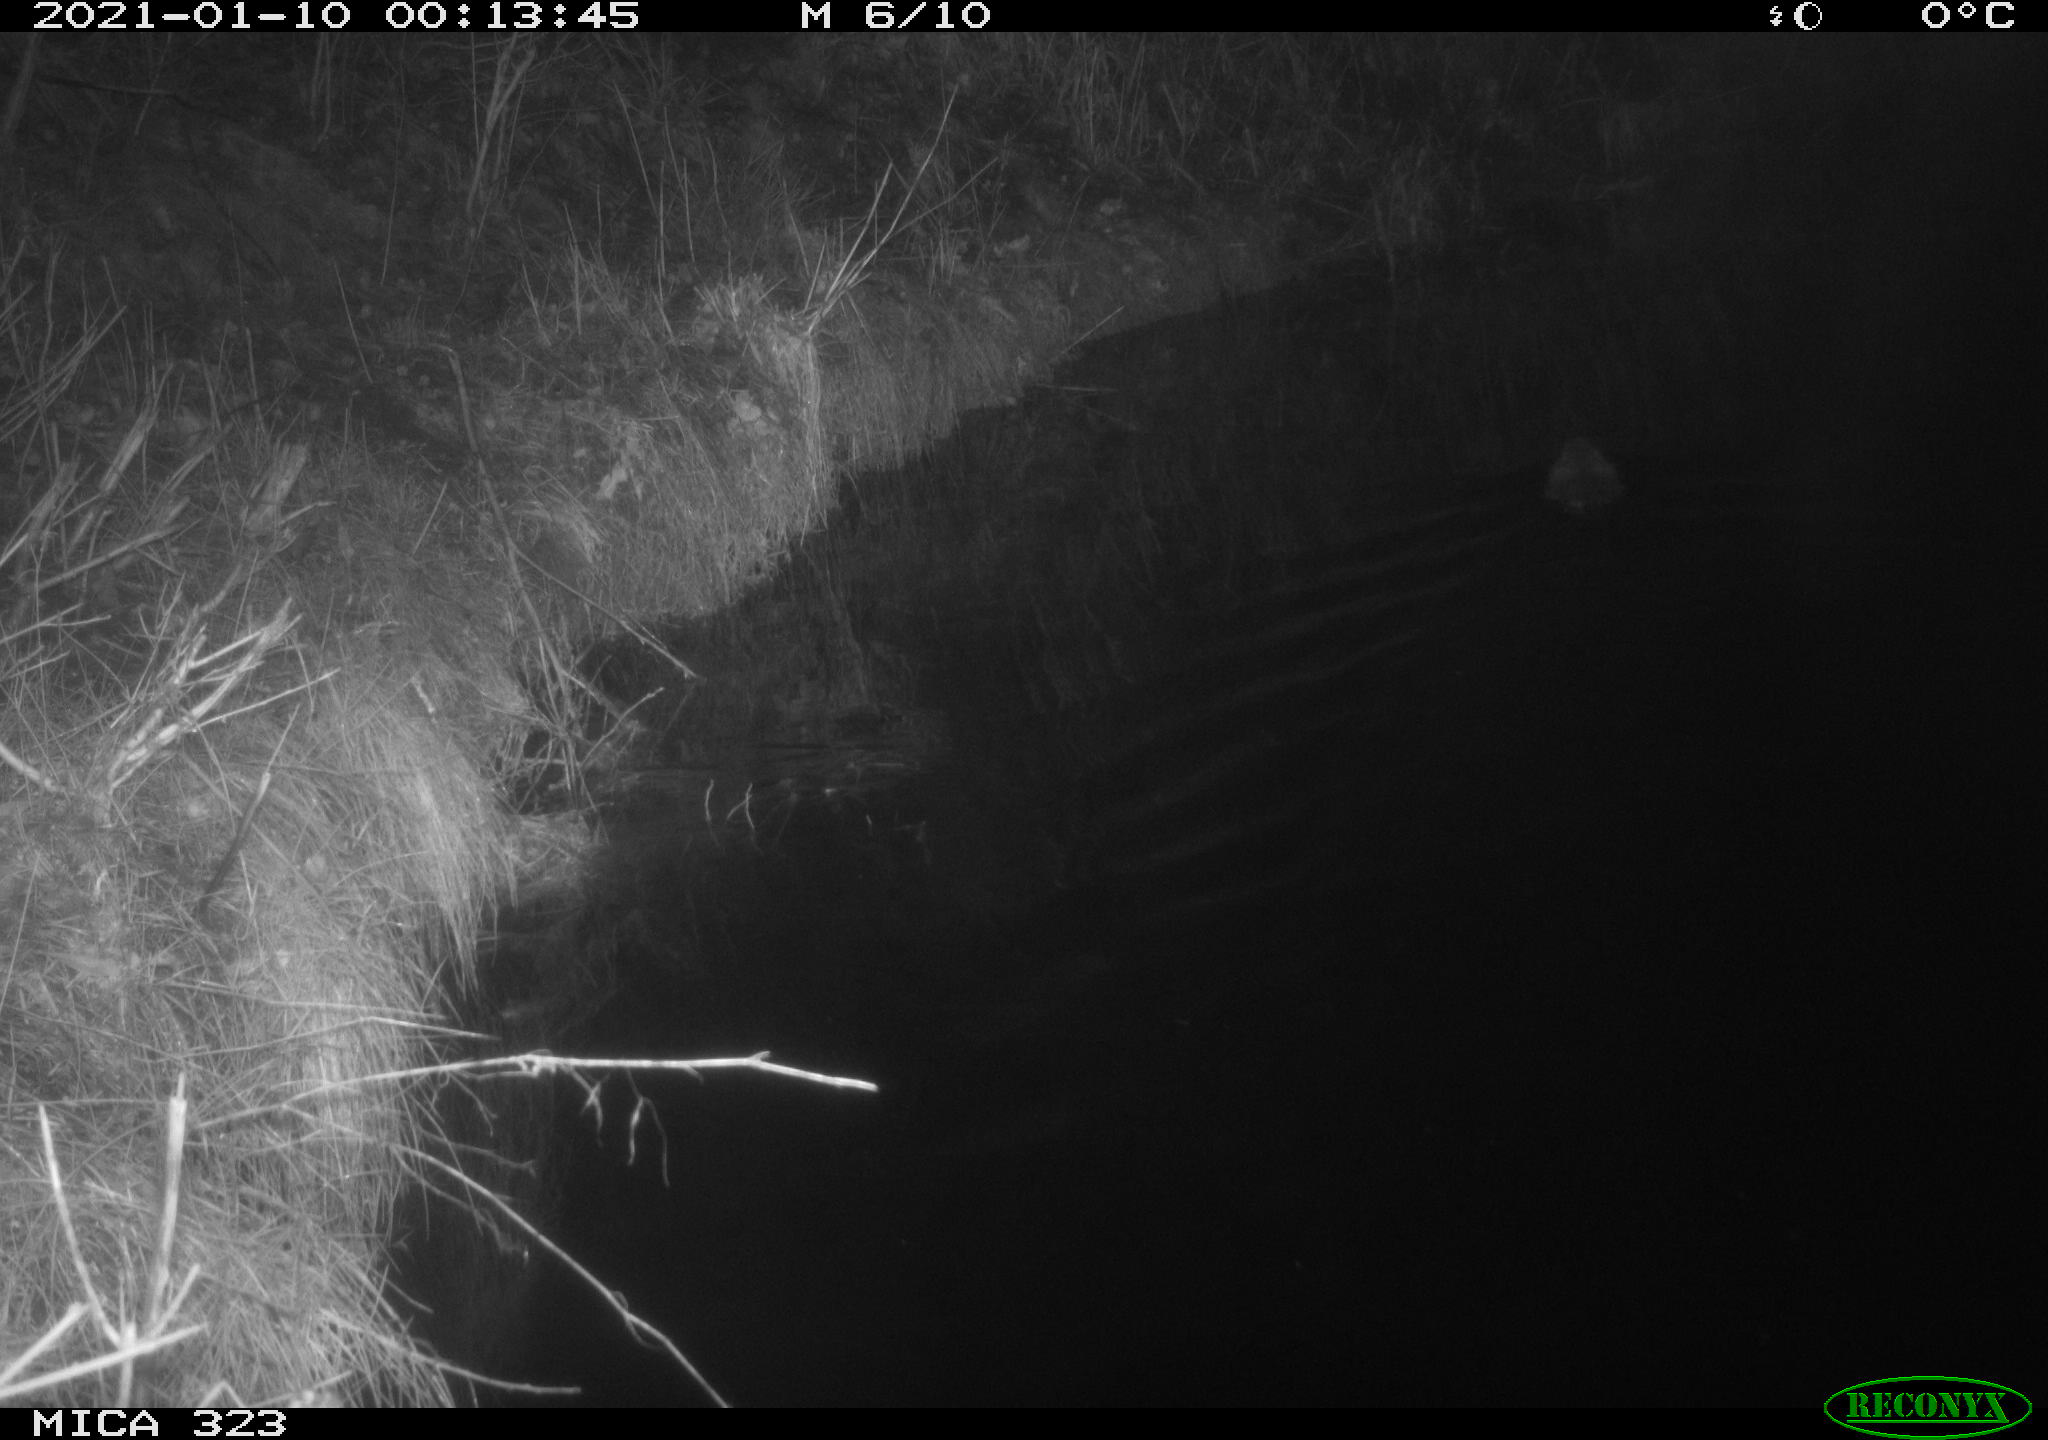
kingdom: Animalia
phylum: Chordata
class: Mammalia
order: Rodentia
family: Myocastoridae
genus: Myocastor
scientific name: Myocastor coypus
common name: Coypu
